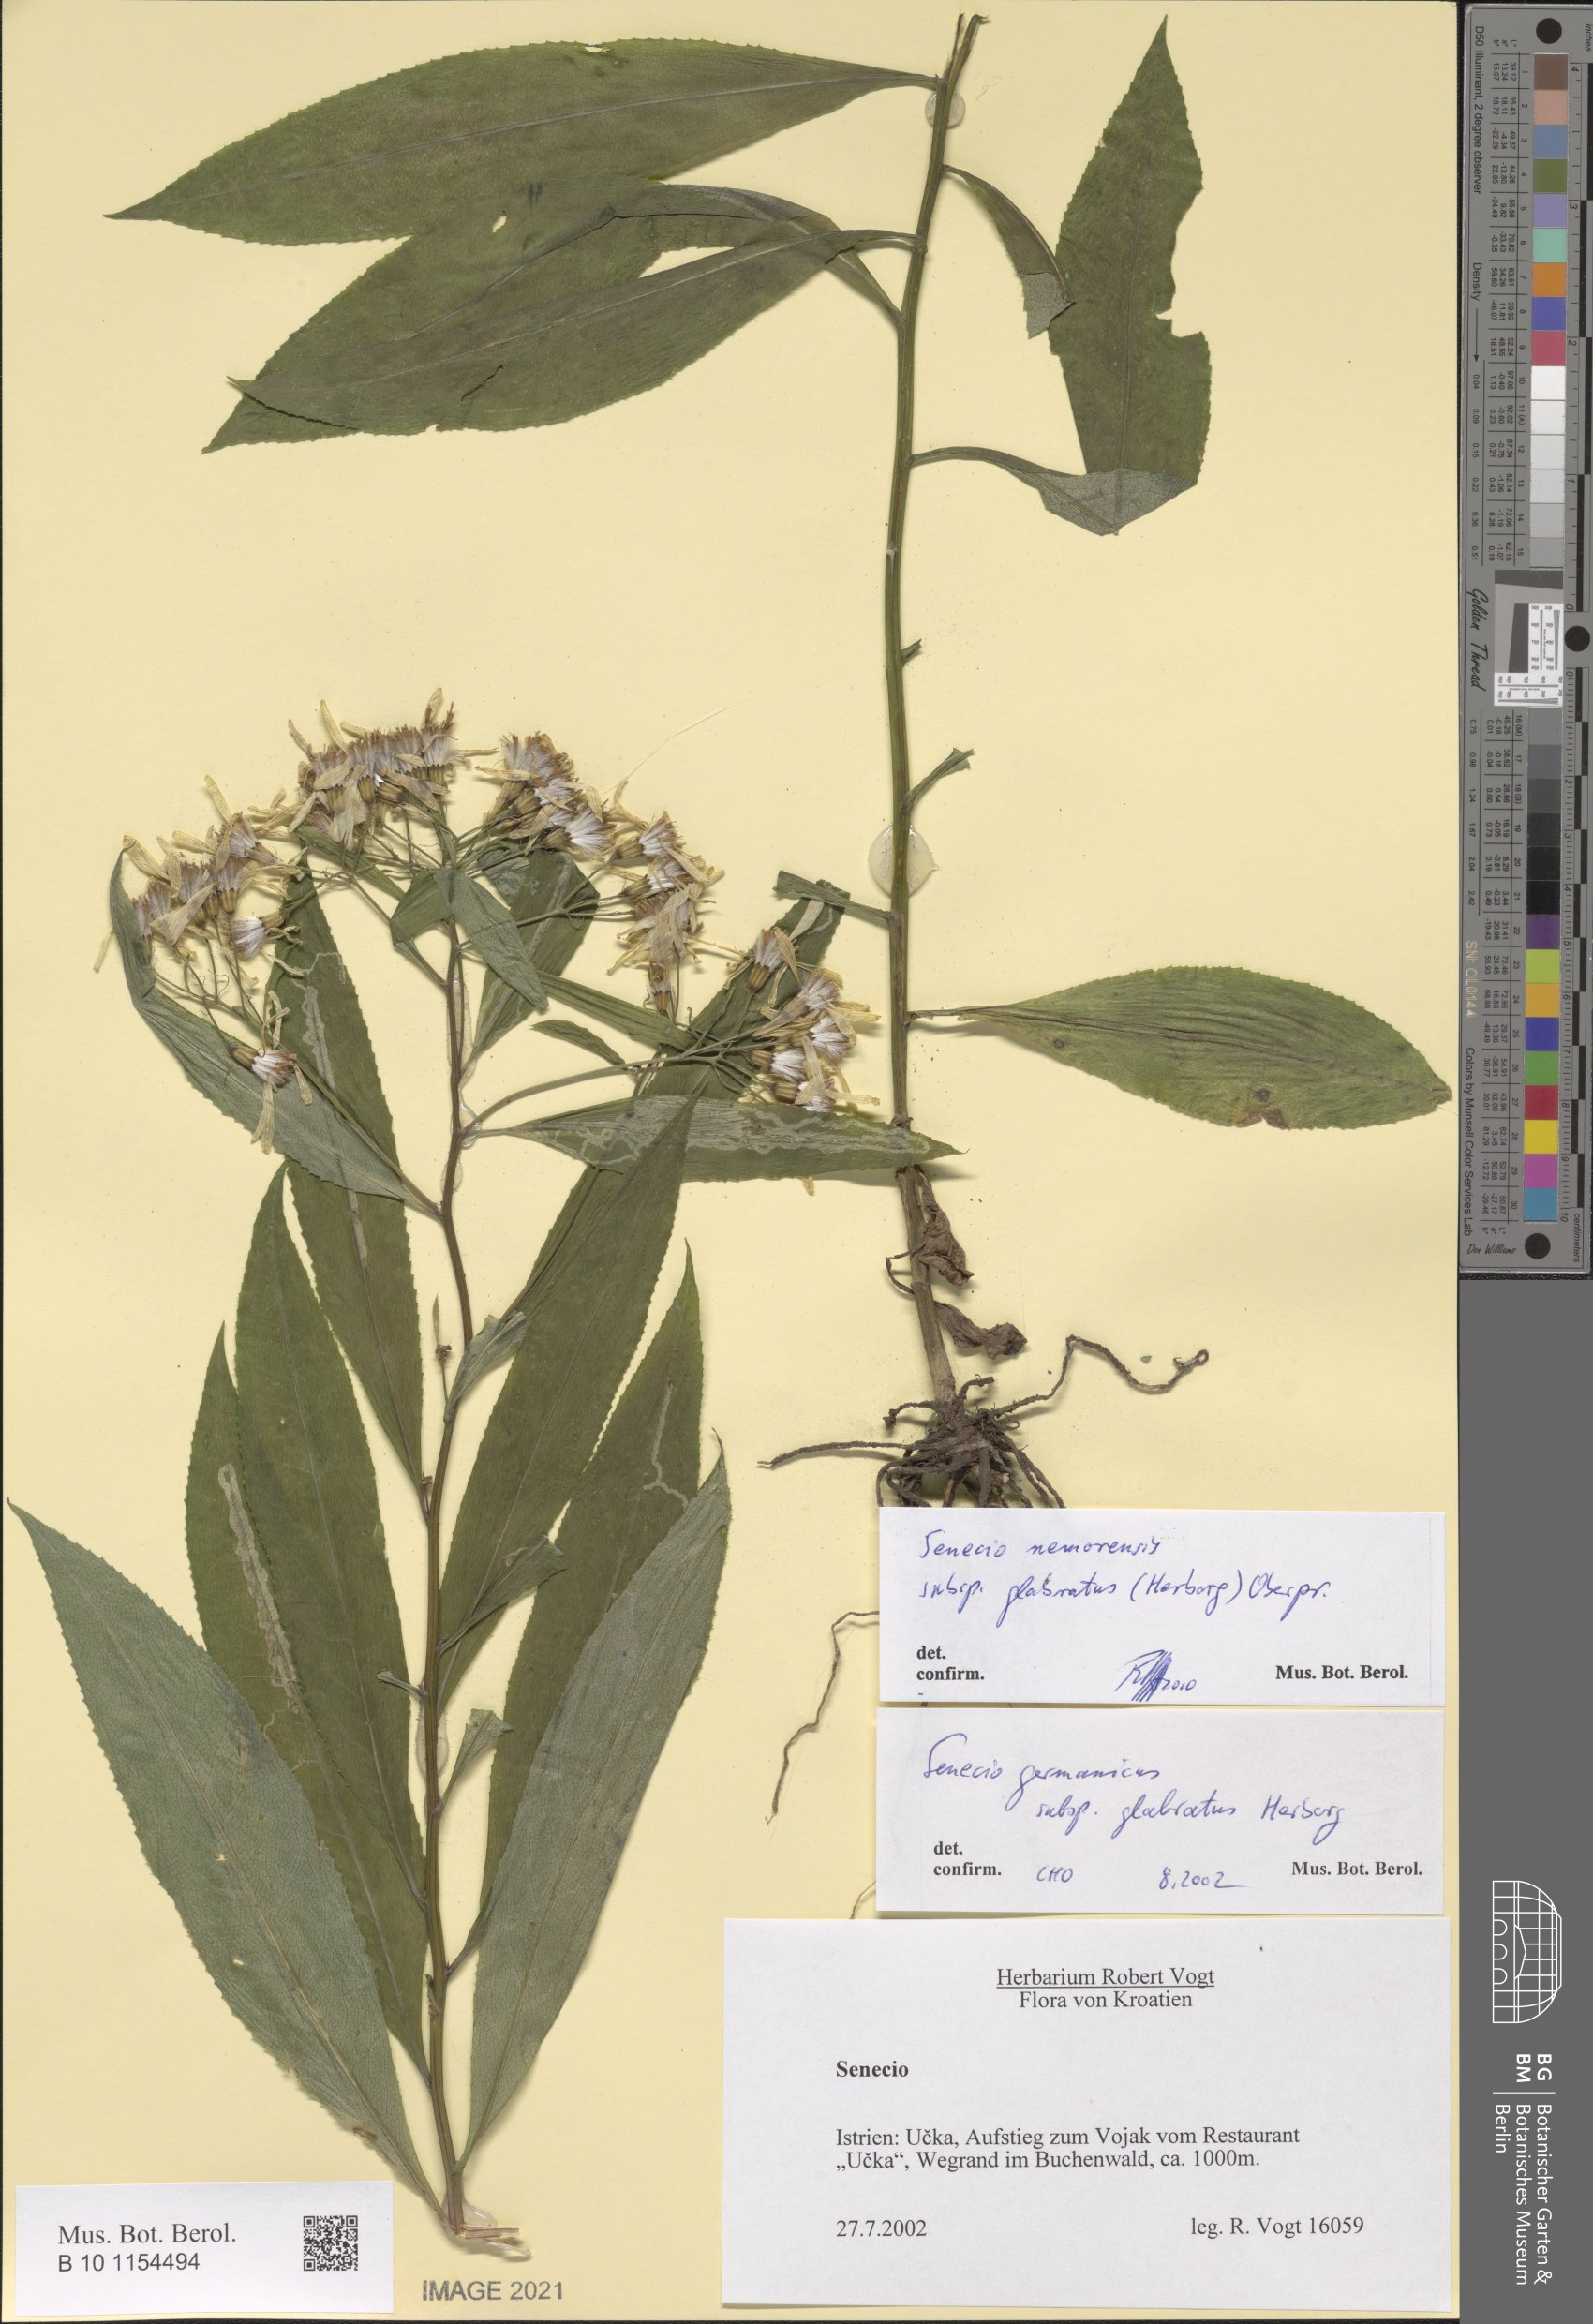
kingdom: Plantae
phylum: Tracheophyta
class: Magnoliopsida
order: Asterales
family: Asteraceae
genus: Senecio
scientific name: Senecio germanicus
